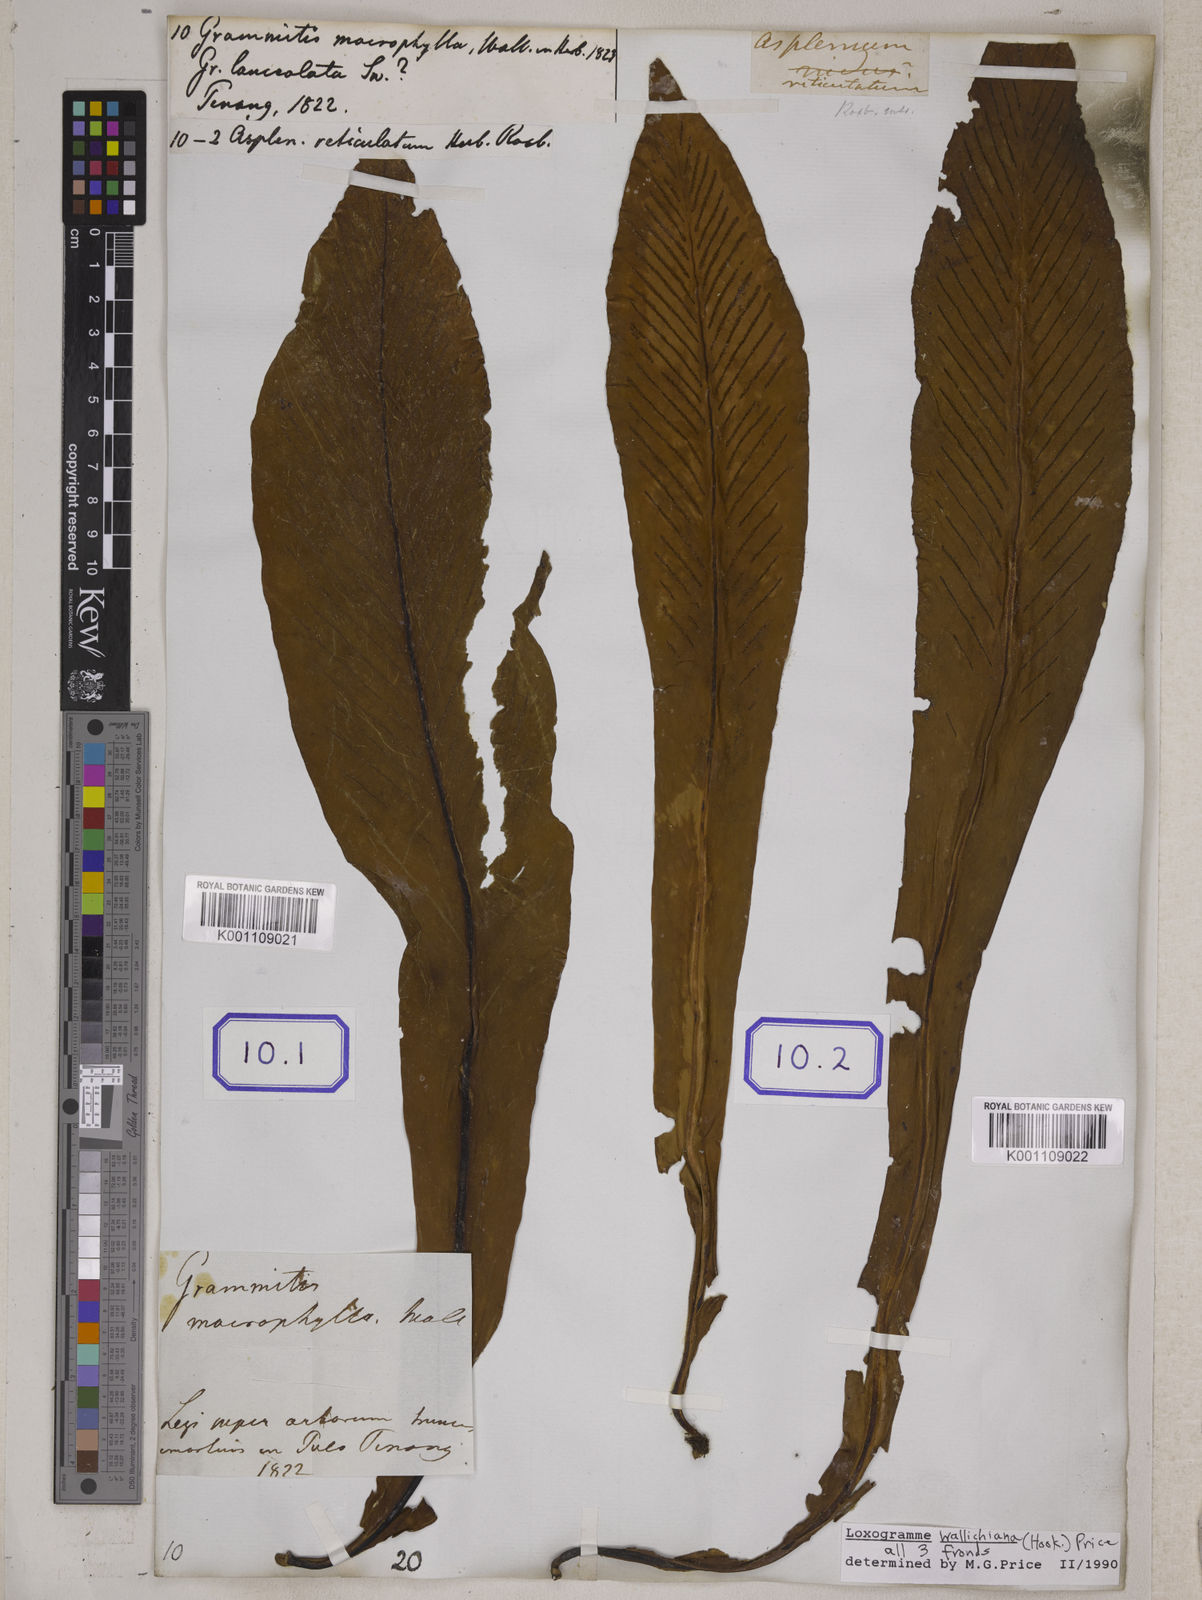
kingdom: Plantae
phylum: Tracheophyta
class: Polypodiopsida
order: Polypodiales
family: Polypodiaceae
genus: Loxogramme
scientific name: Loxogramme involuta
